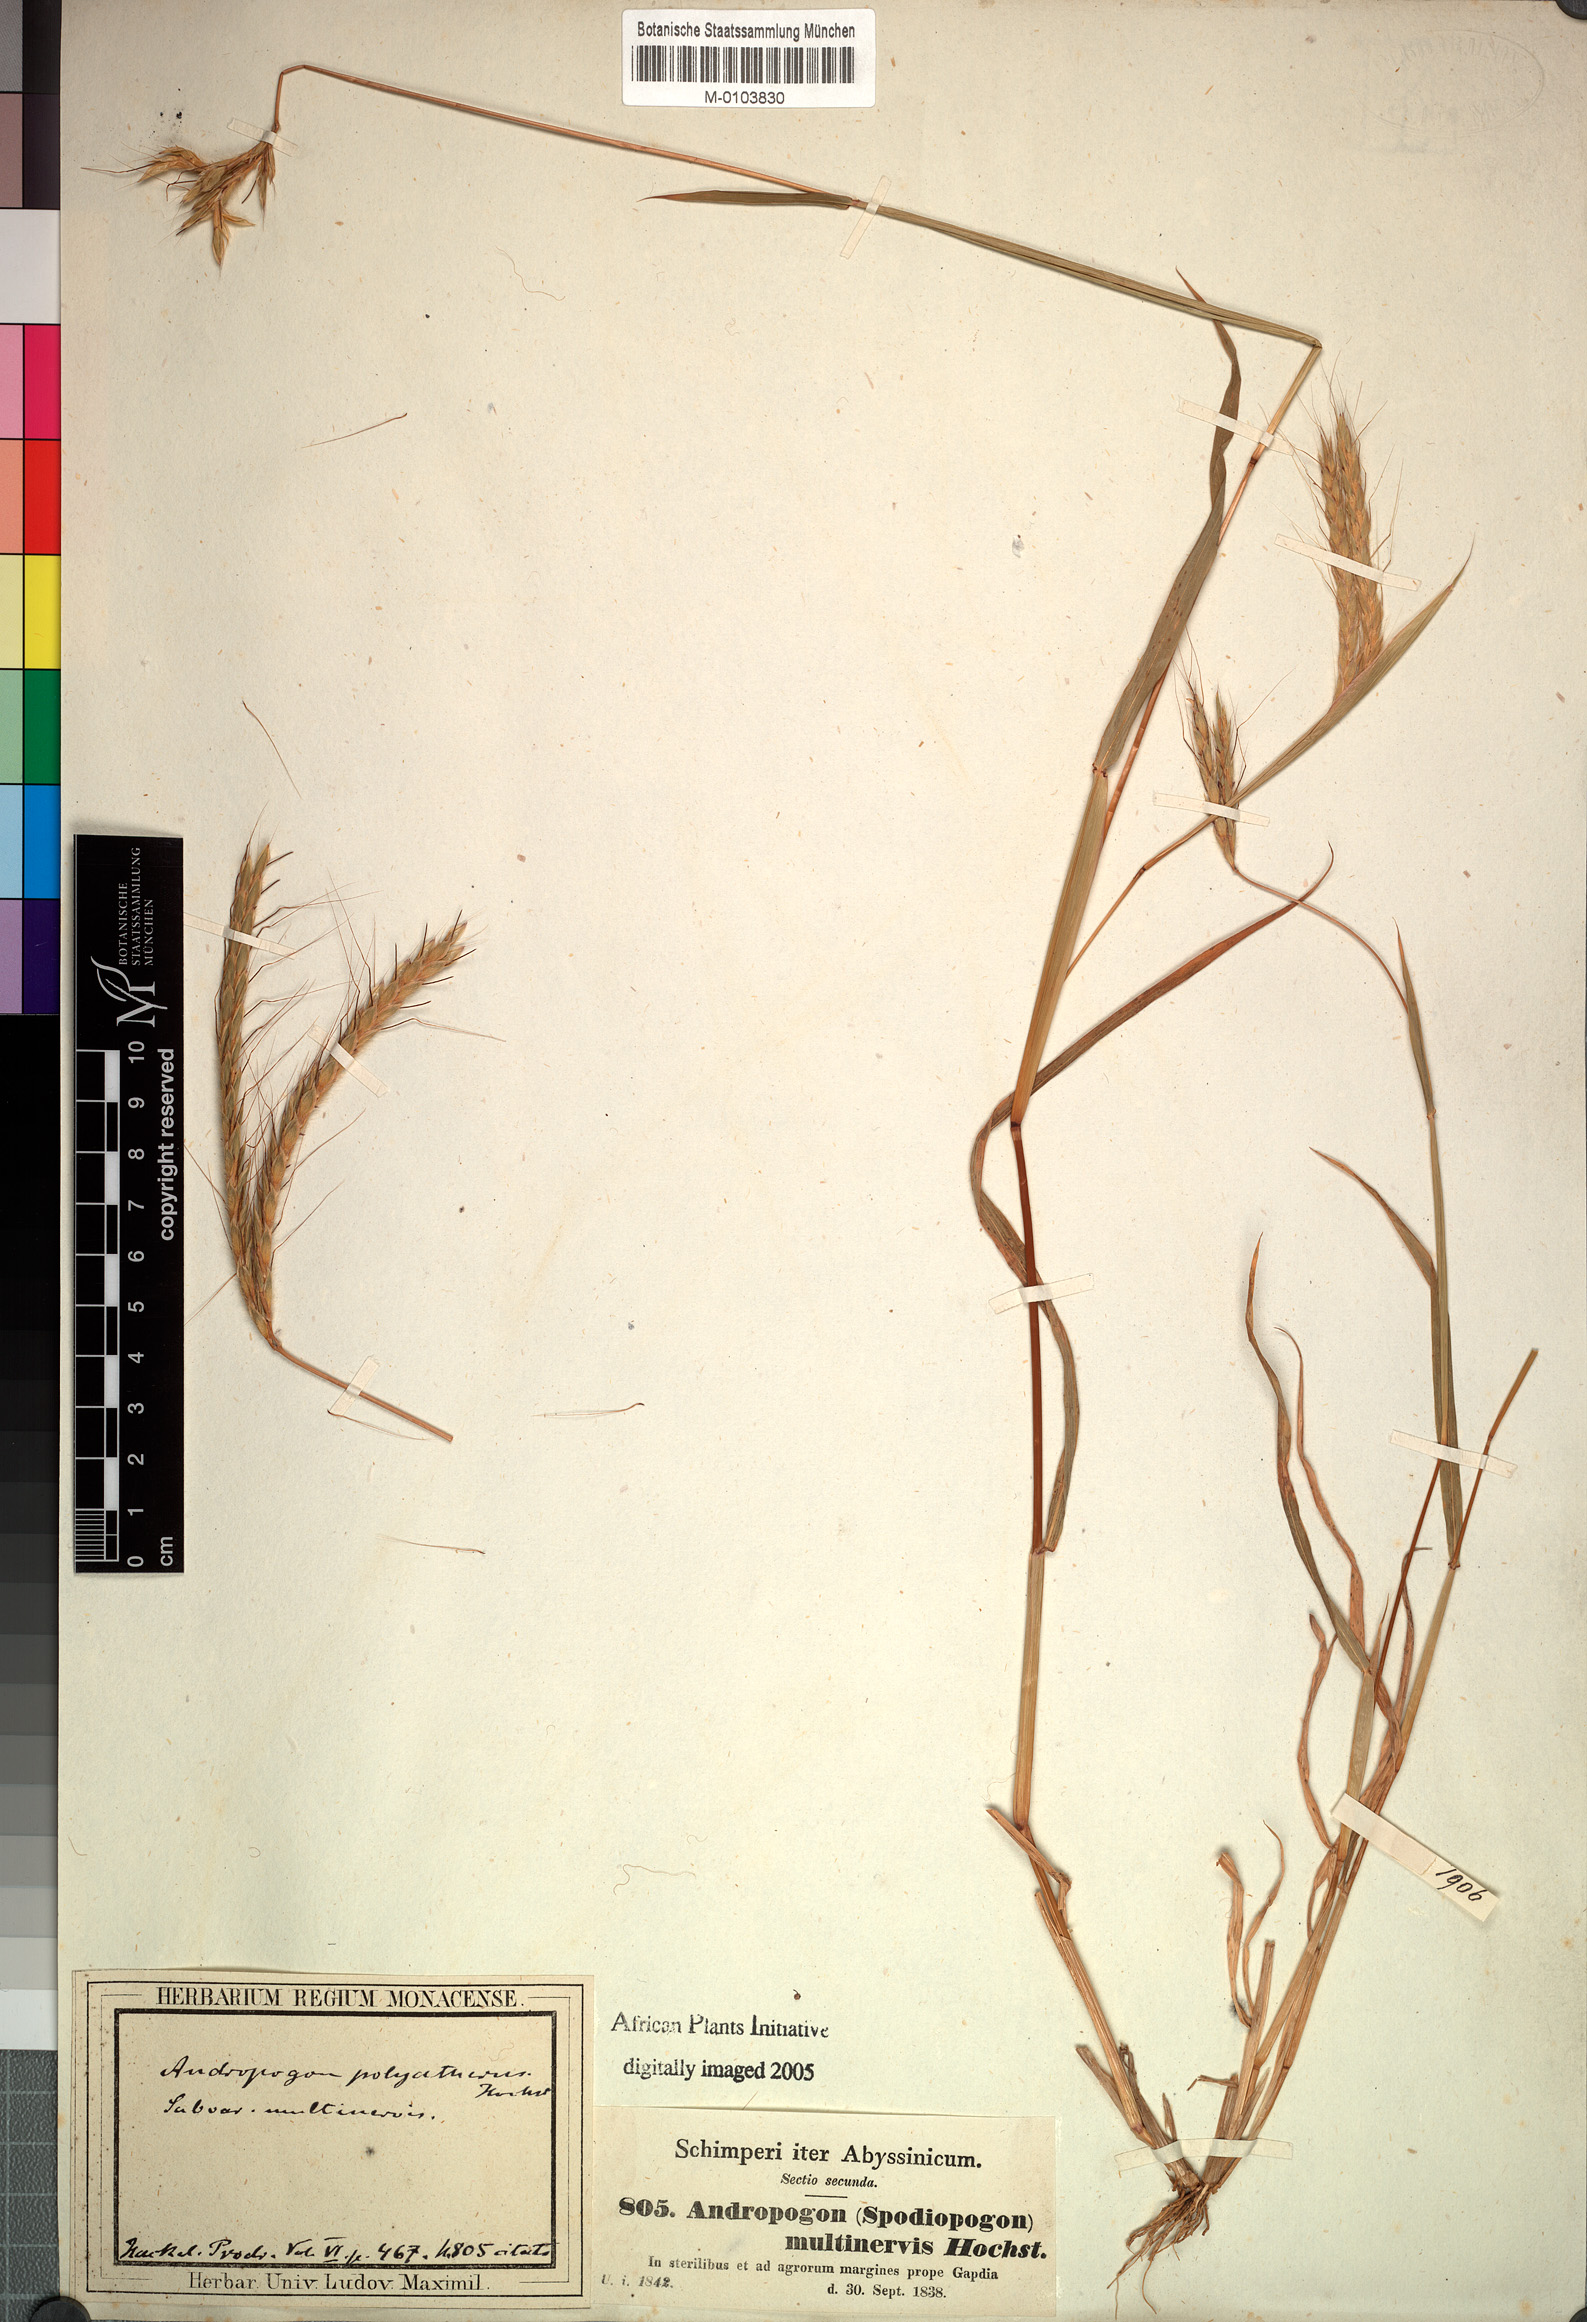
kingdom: Plantae
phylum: Tracheophyta
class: Liliopsida
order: Poales
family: Poaceae
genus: Andropogon
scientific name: Andropogon abyssinicus
